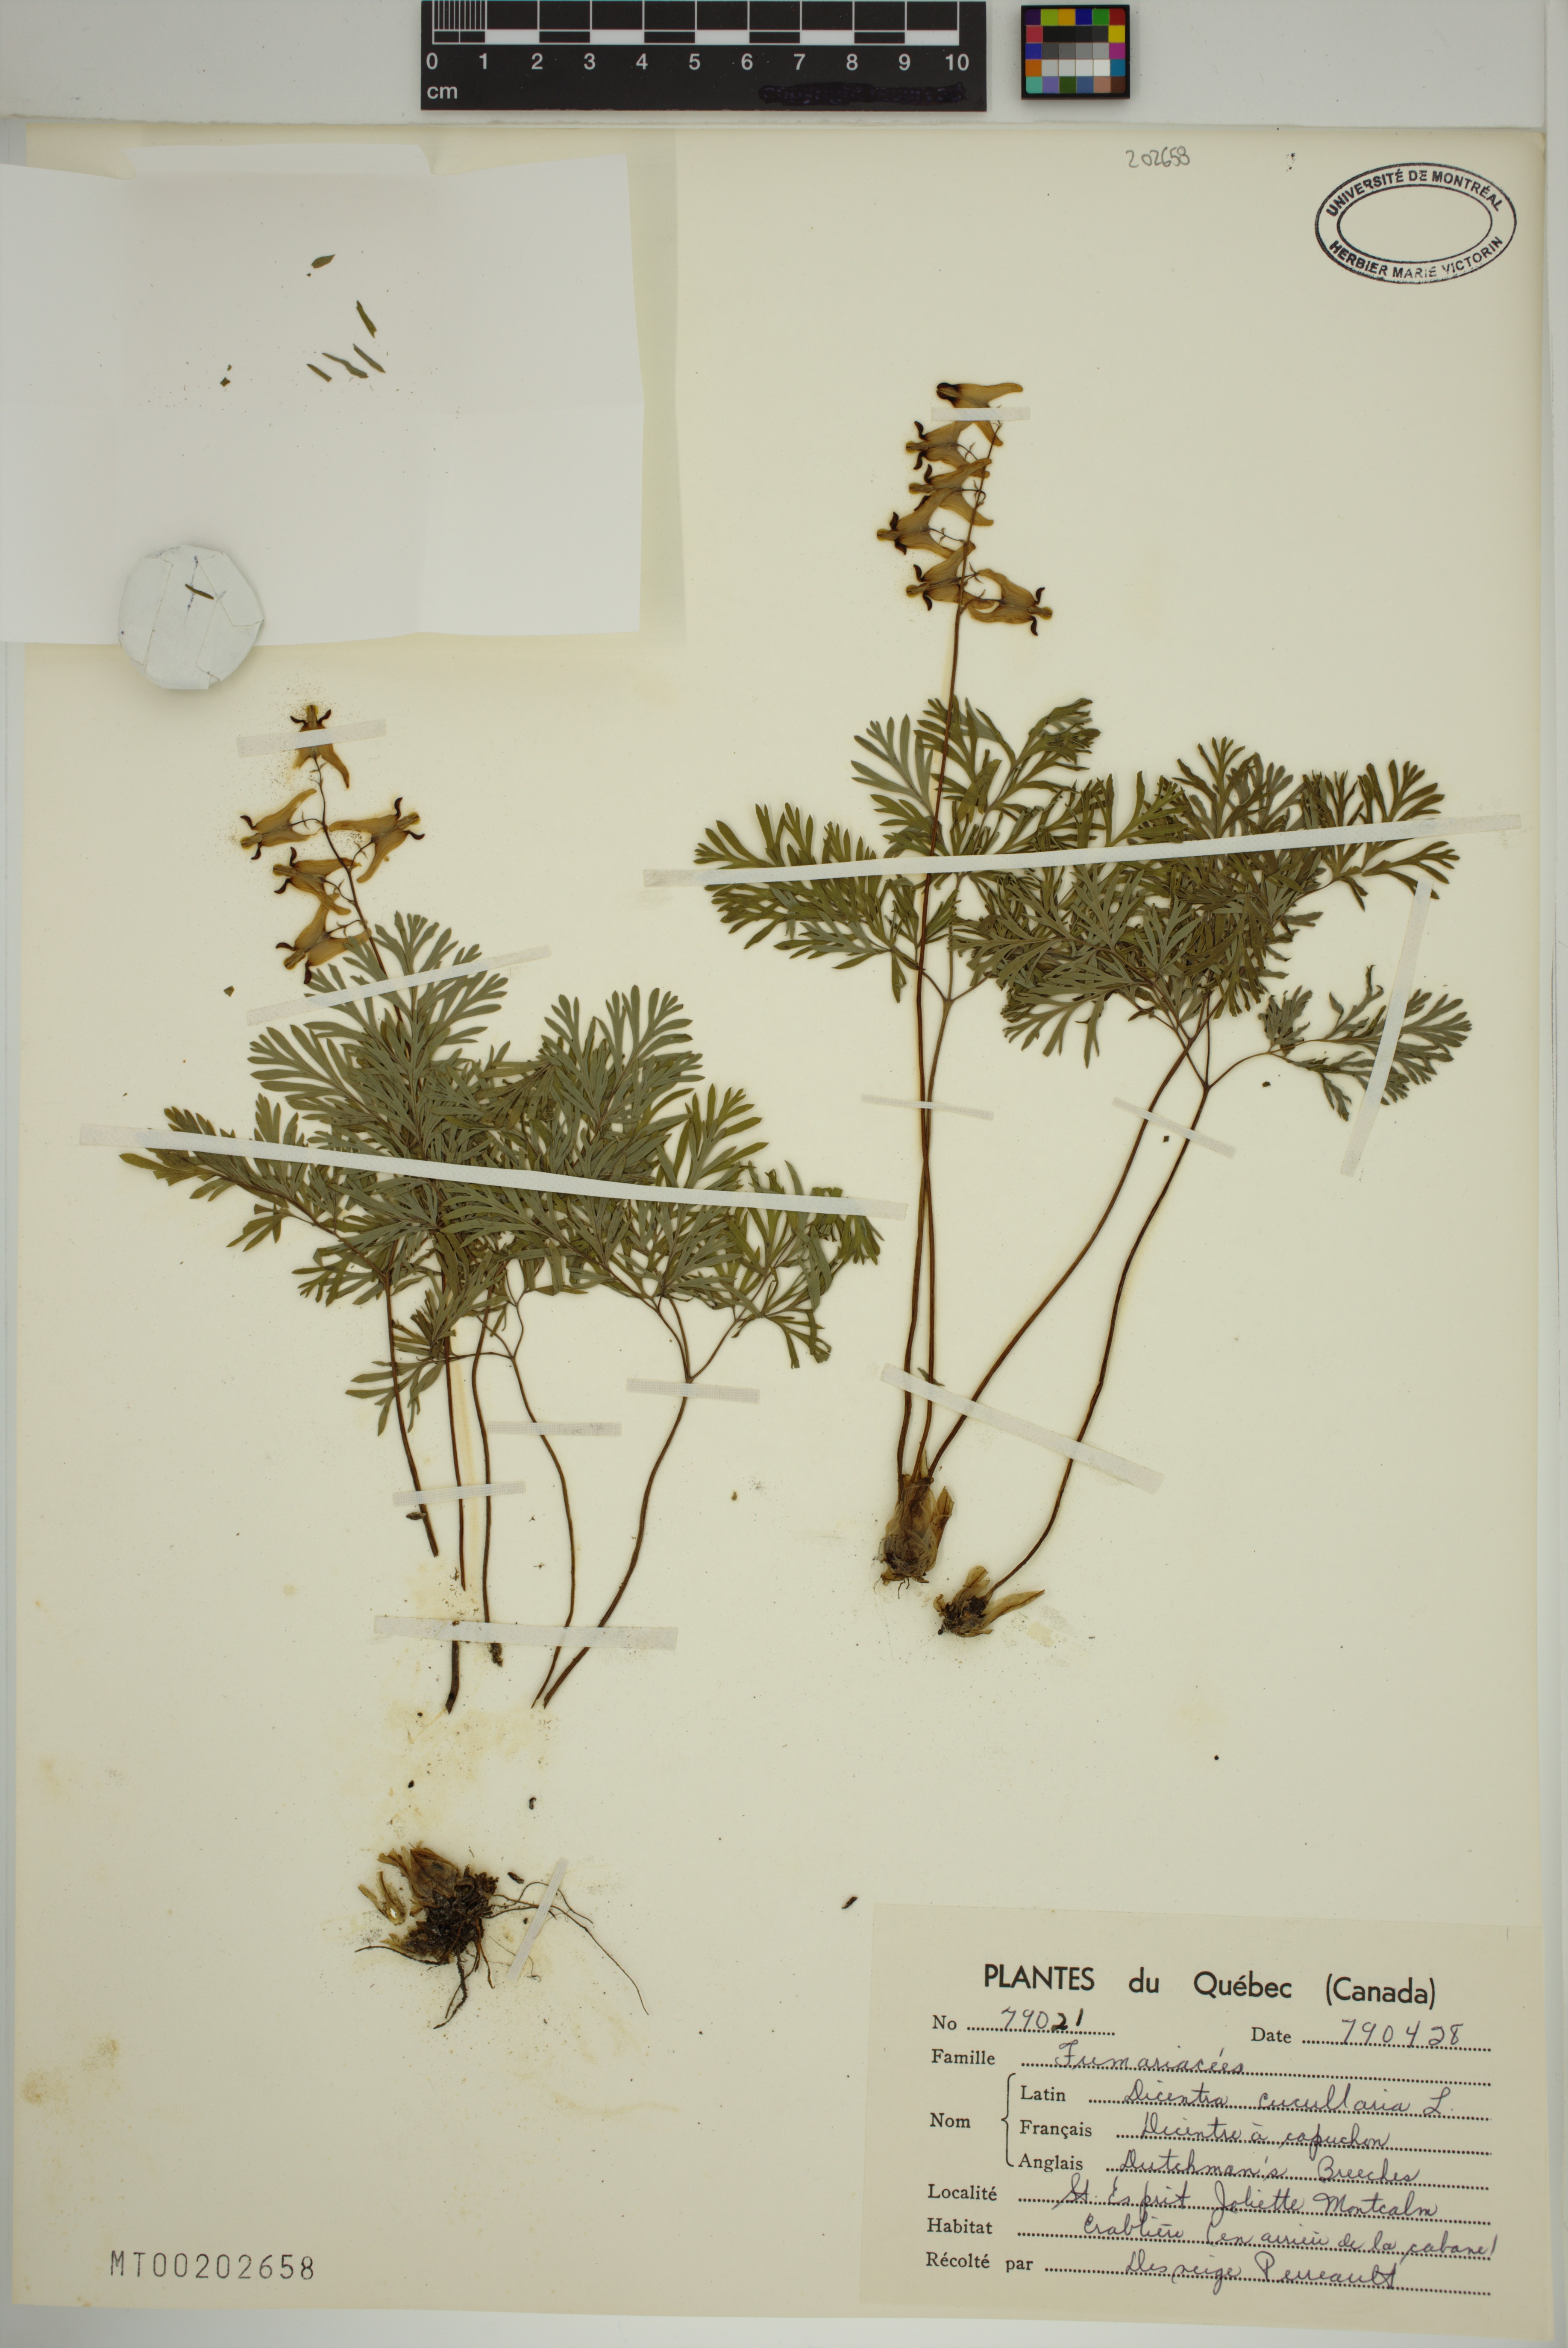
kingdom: Plantae
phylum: Tracheophyta
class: Magnoliopsida
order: Ranunculales
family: Papaveraceae
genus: Dicentra
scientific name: Dicentra cucullaria
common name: Dutchman's breeches
